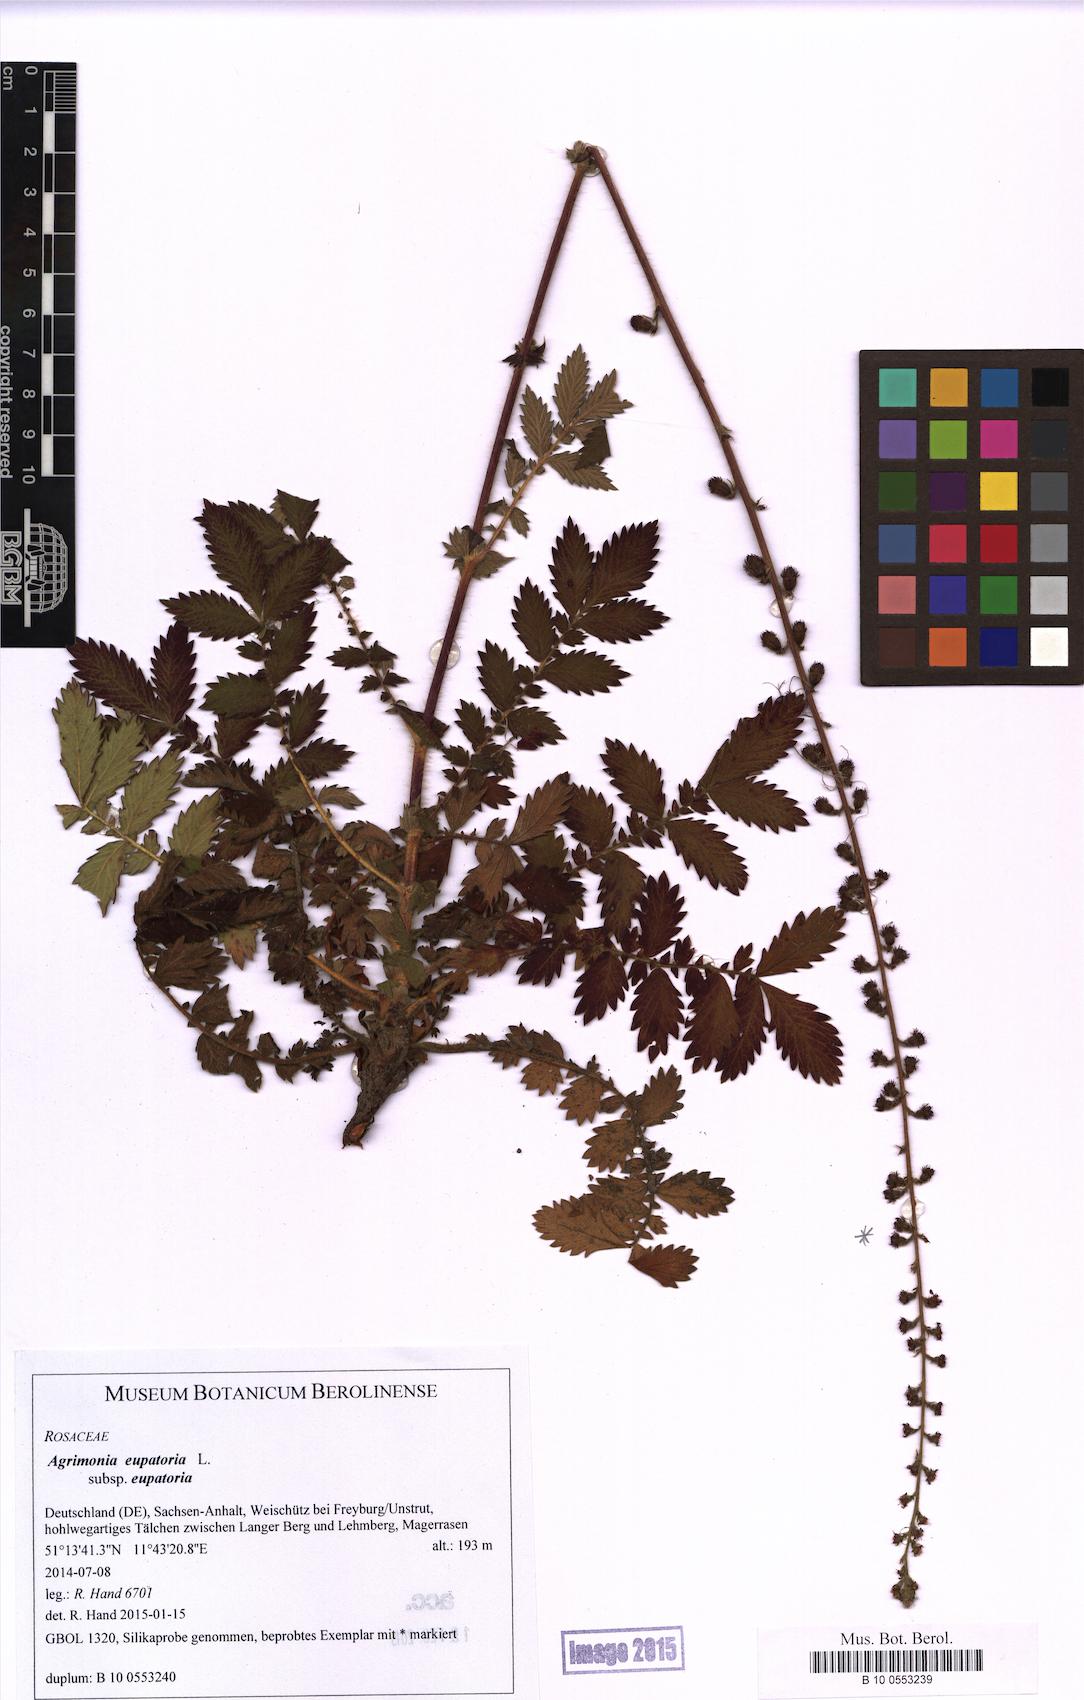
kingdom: Plantae
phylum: Tracheophyta
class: Magnoliopsida
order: Rosales
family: Rosaceae
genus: Agrimonia
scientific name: Agrimonia eupatoria
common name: Agrimony
